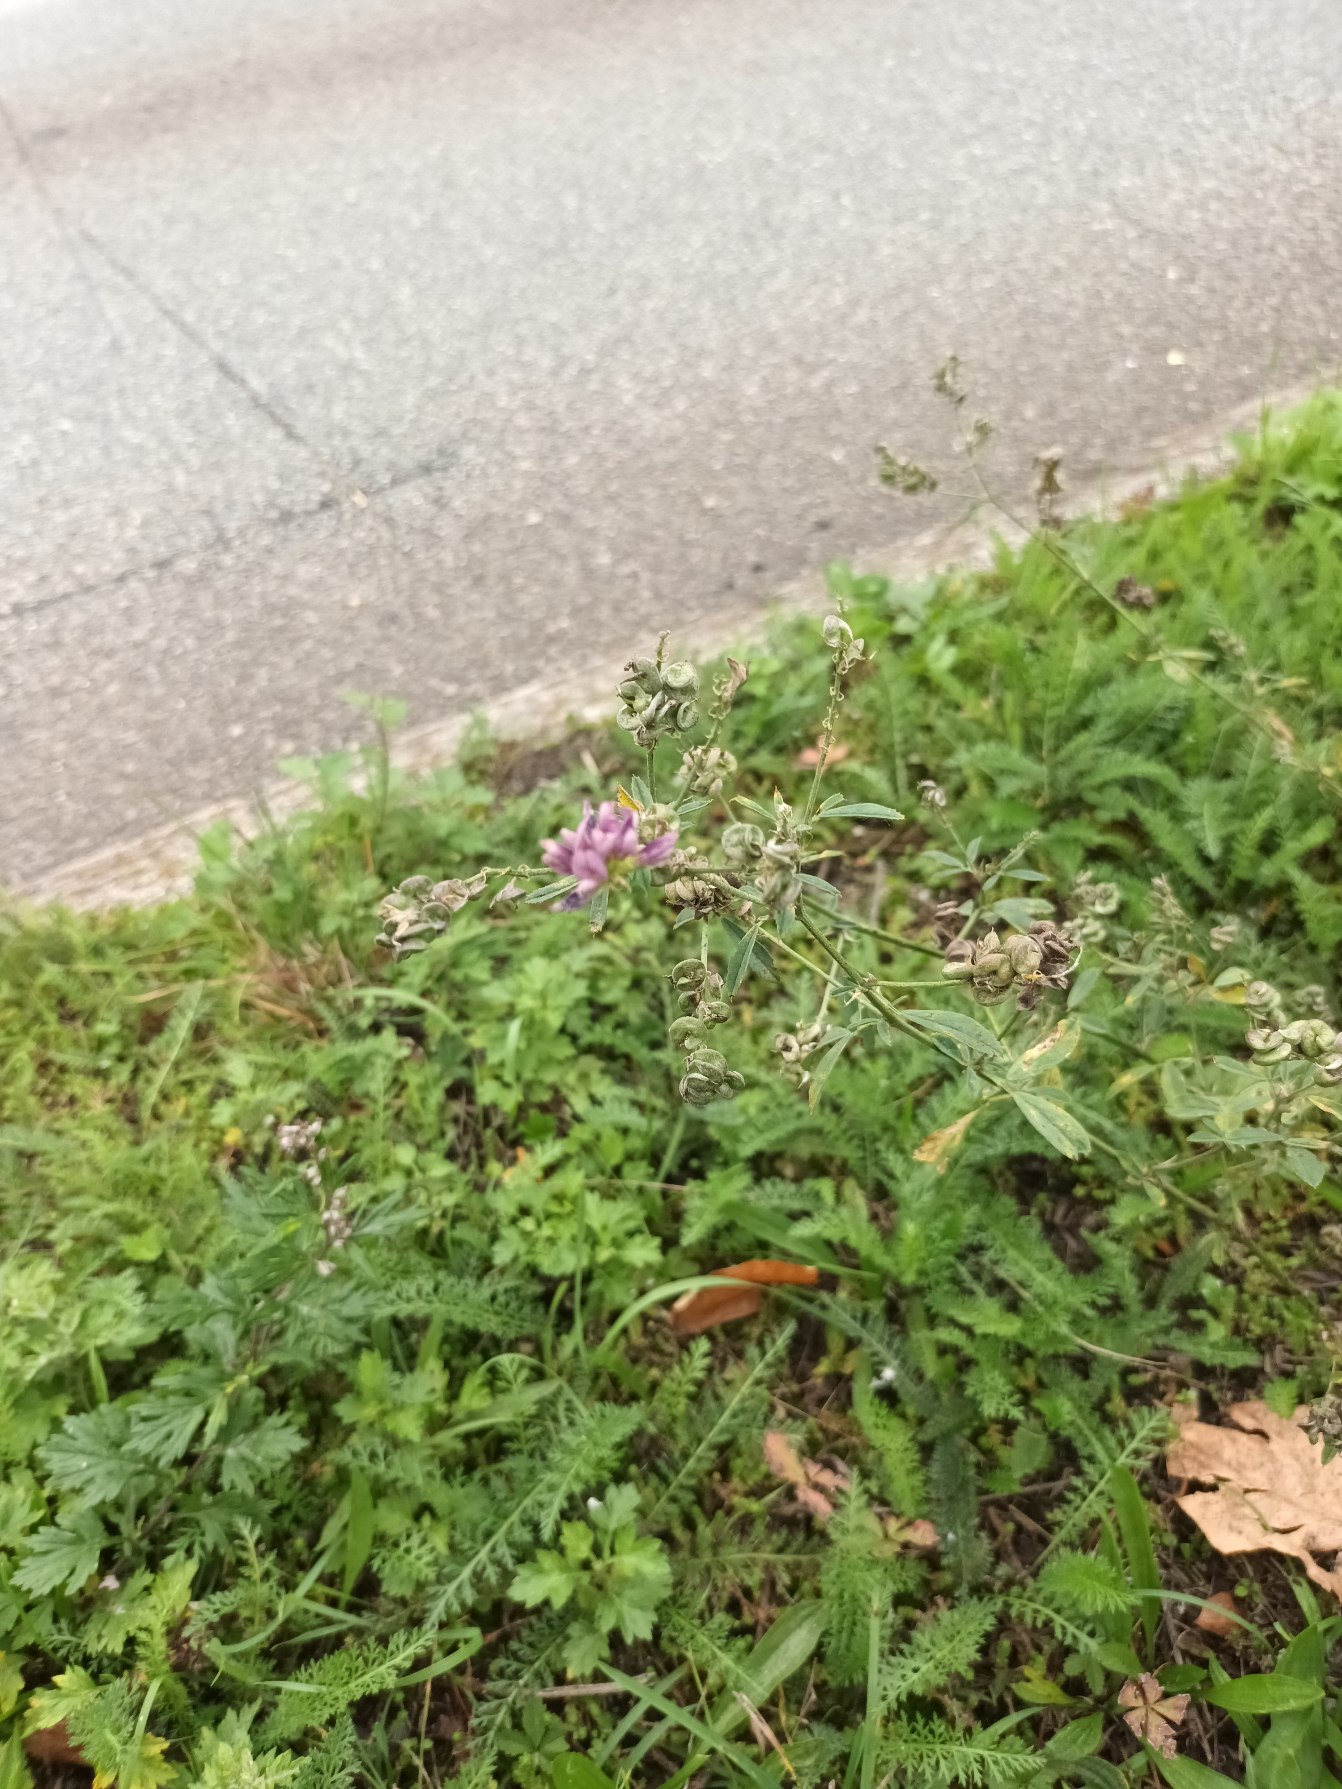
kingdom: Plantae
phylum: Tracheophyta
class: Magnoliopsida
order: Fabales
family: Fabaceae
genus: Medicago
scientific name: Medicago sativa
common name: Lucerne
